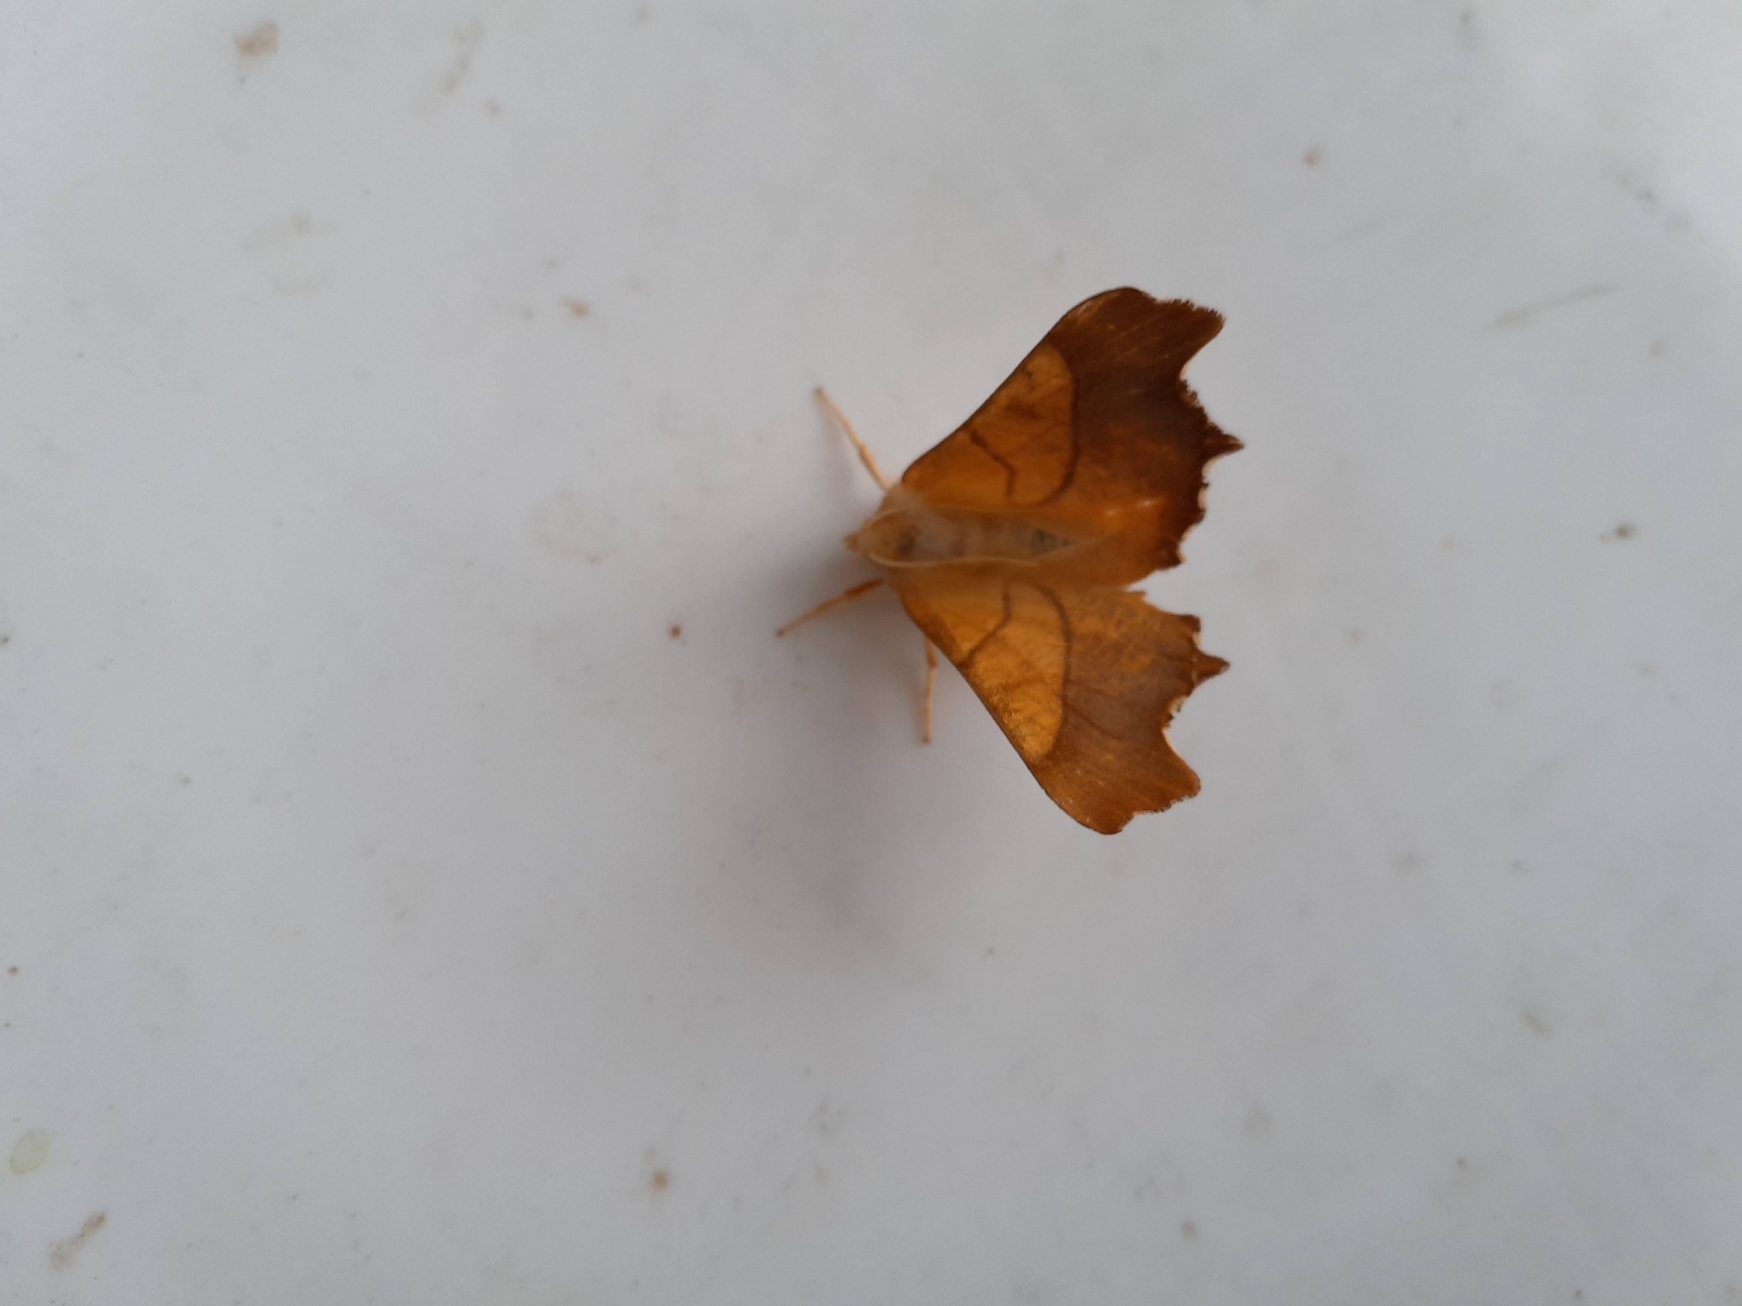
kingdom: Animalia
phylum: Arthropoda
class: Insecta
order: Lepidoptera
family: Geometridae
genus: Ennomos
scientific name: Ennomos fuscantaria
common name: Asketandmåler
